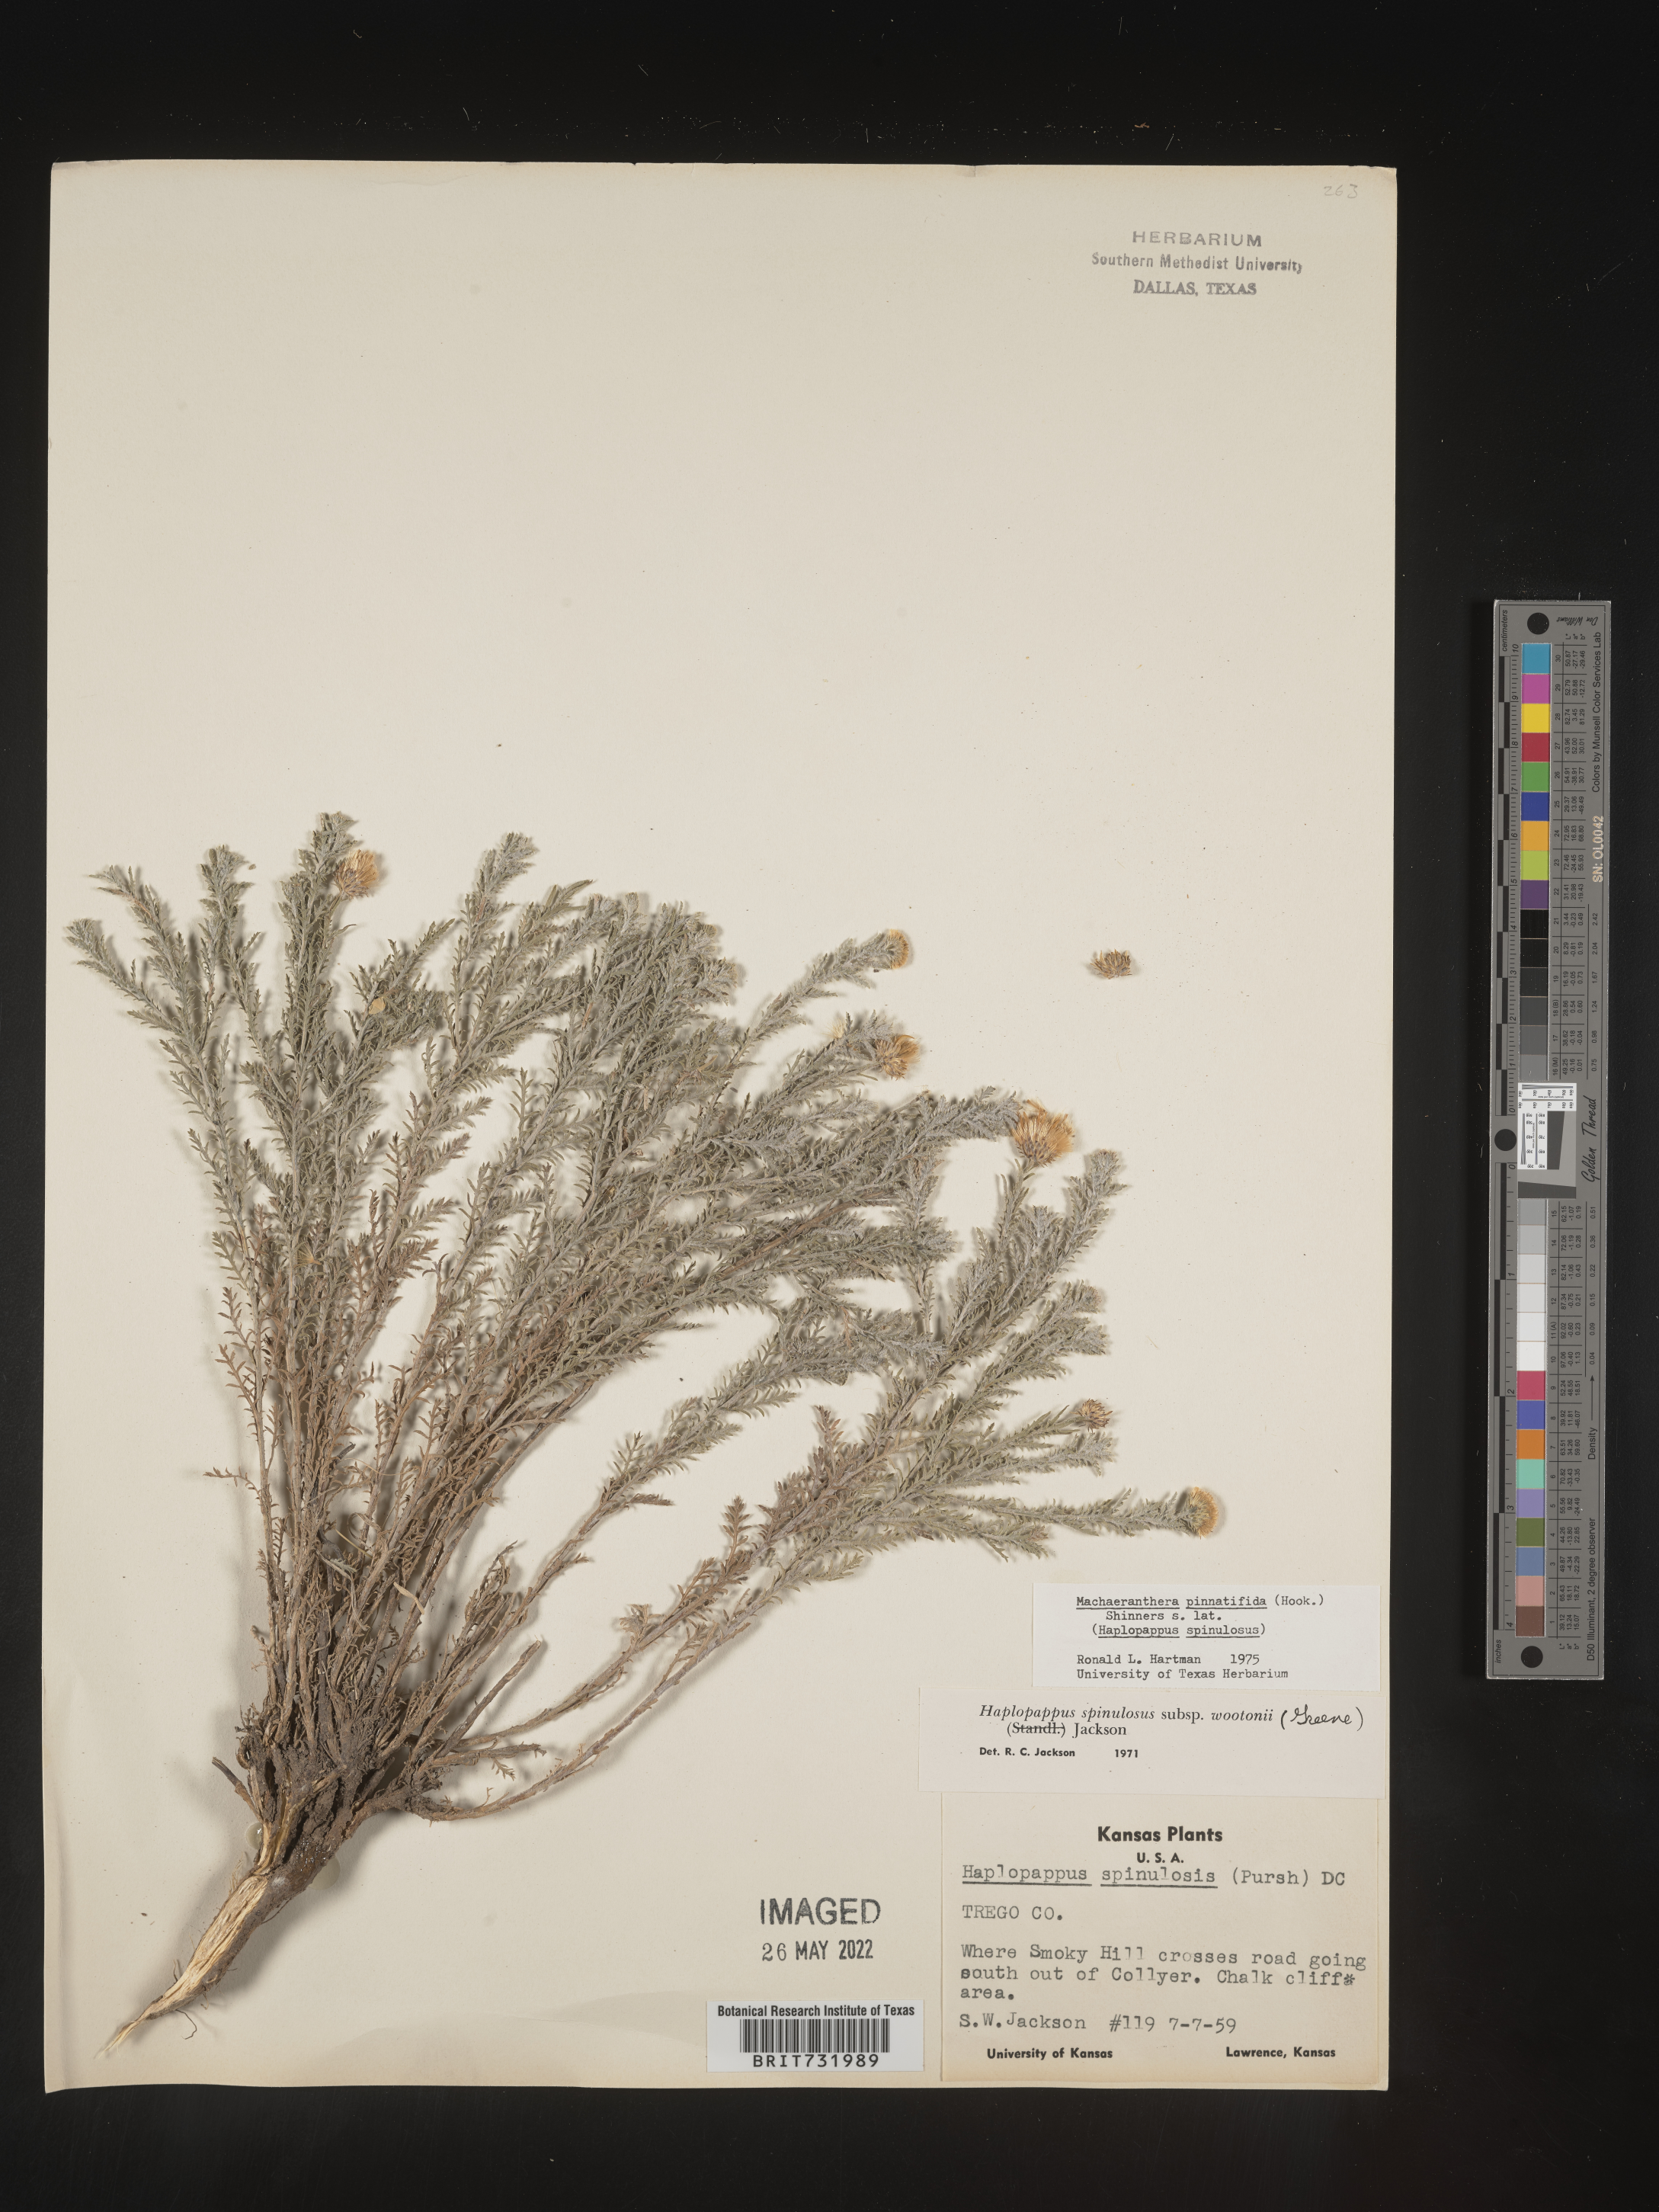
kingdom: Plantae
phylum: Tracheophyta
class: Magnoliopsida
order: Asterales
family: Asteraceae
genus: Xanthisma
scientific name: Xanthisma spinulosum
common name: Spiny goldenweed
